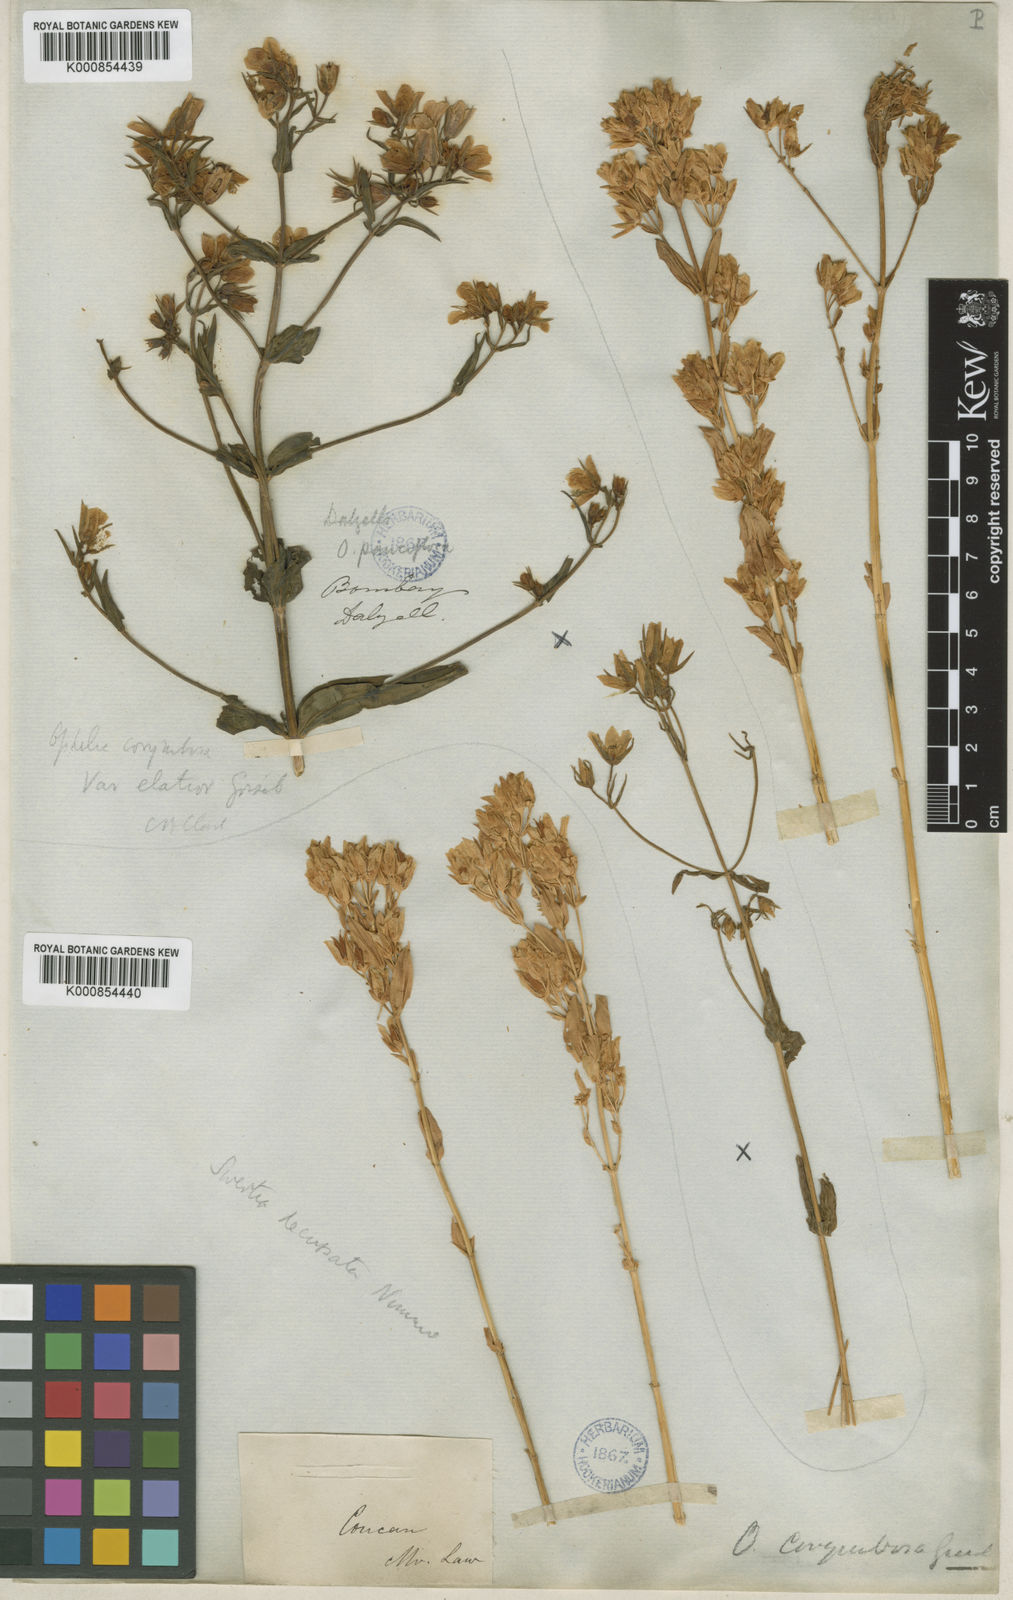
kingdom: Plantae
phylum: Tracheophyta
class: Magnoliopsida
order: Gentianales
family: Gentianaceae
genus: Swertia
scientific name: Swertia
